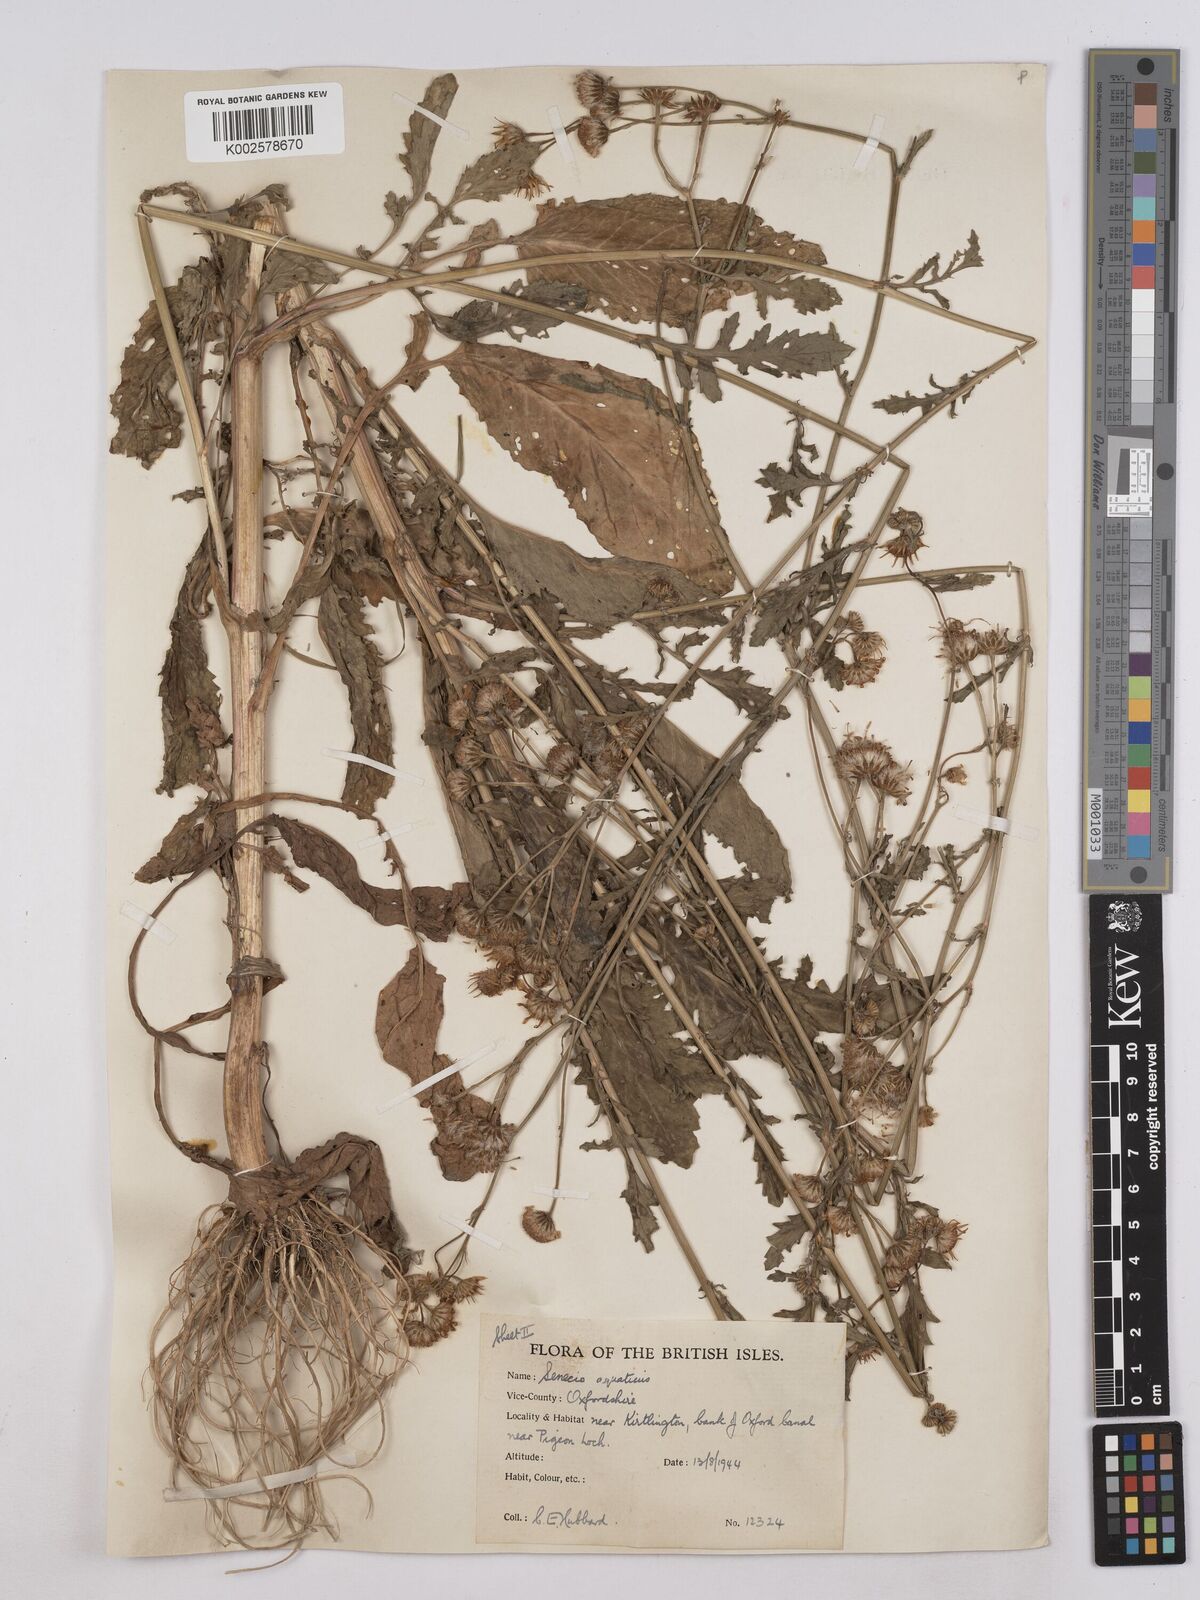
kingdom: Plantae
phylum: Tracheophyta
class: Magnoliopsida
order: Asterales
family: Asteraceae
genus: Jacobaea
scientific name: Jacobaea aquatica
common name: Water ragwort
